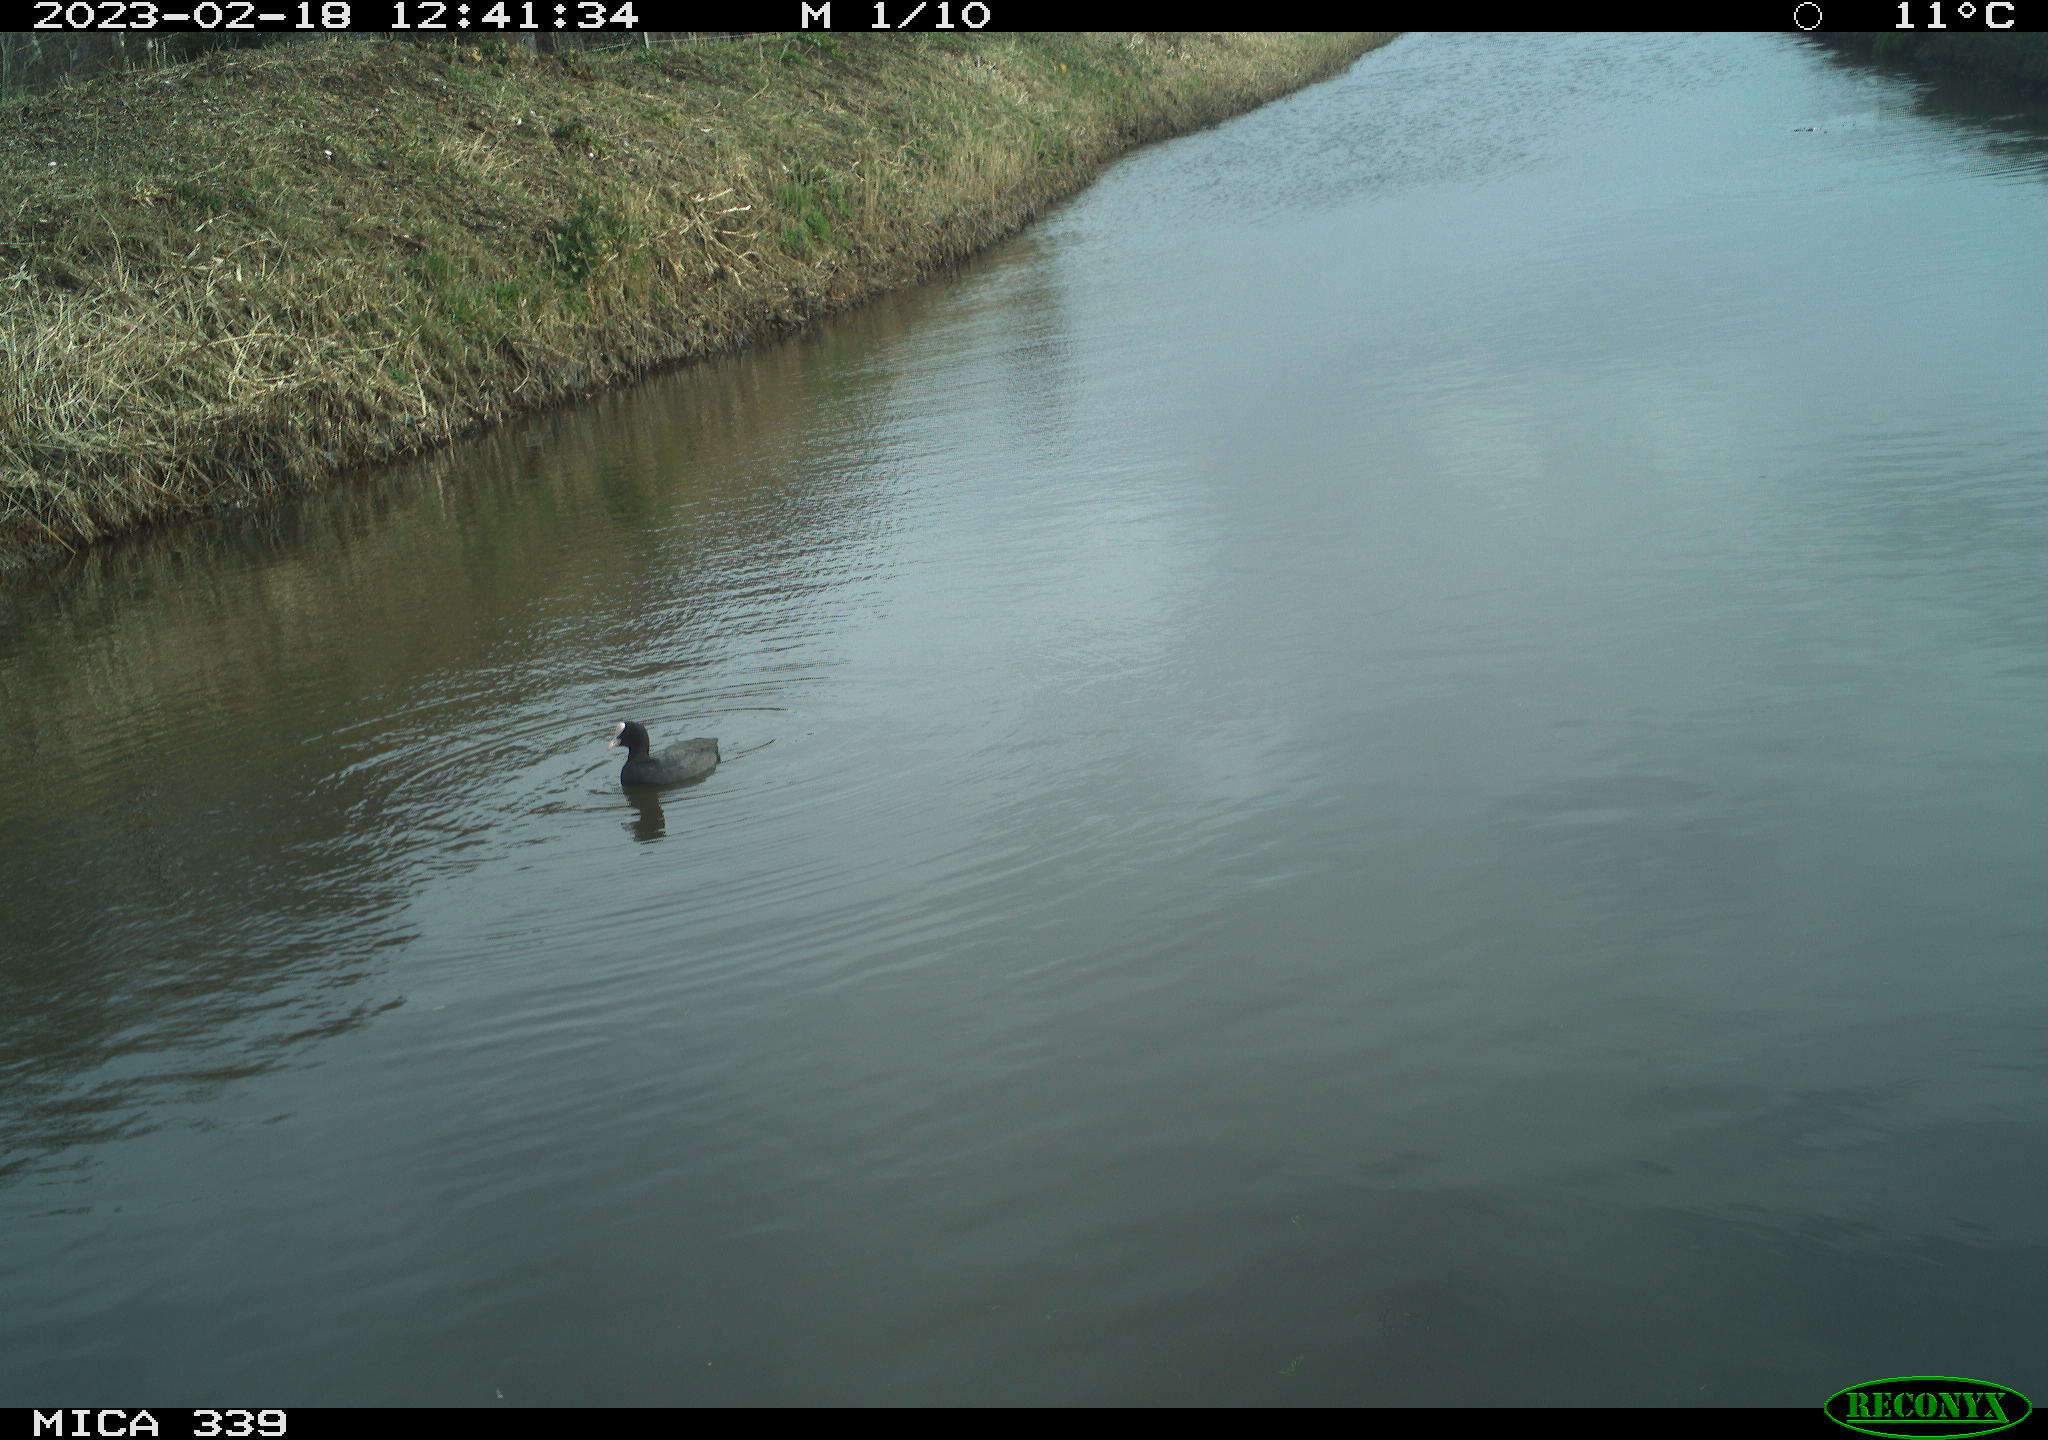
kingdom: Animalia
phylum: Chordata
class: Aves
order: Gruiformes
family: Rallidae
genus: Fulica
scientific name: Fulica atra
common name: Eurasian coot
